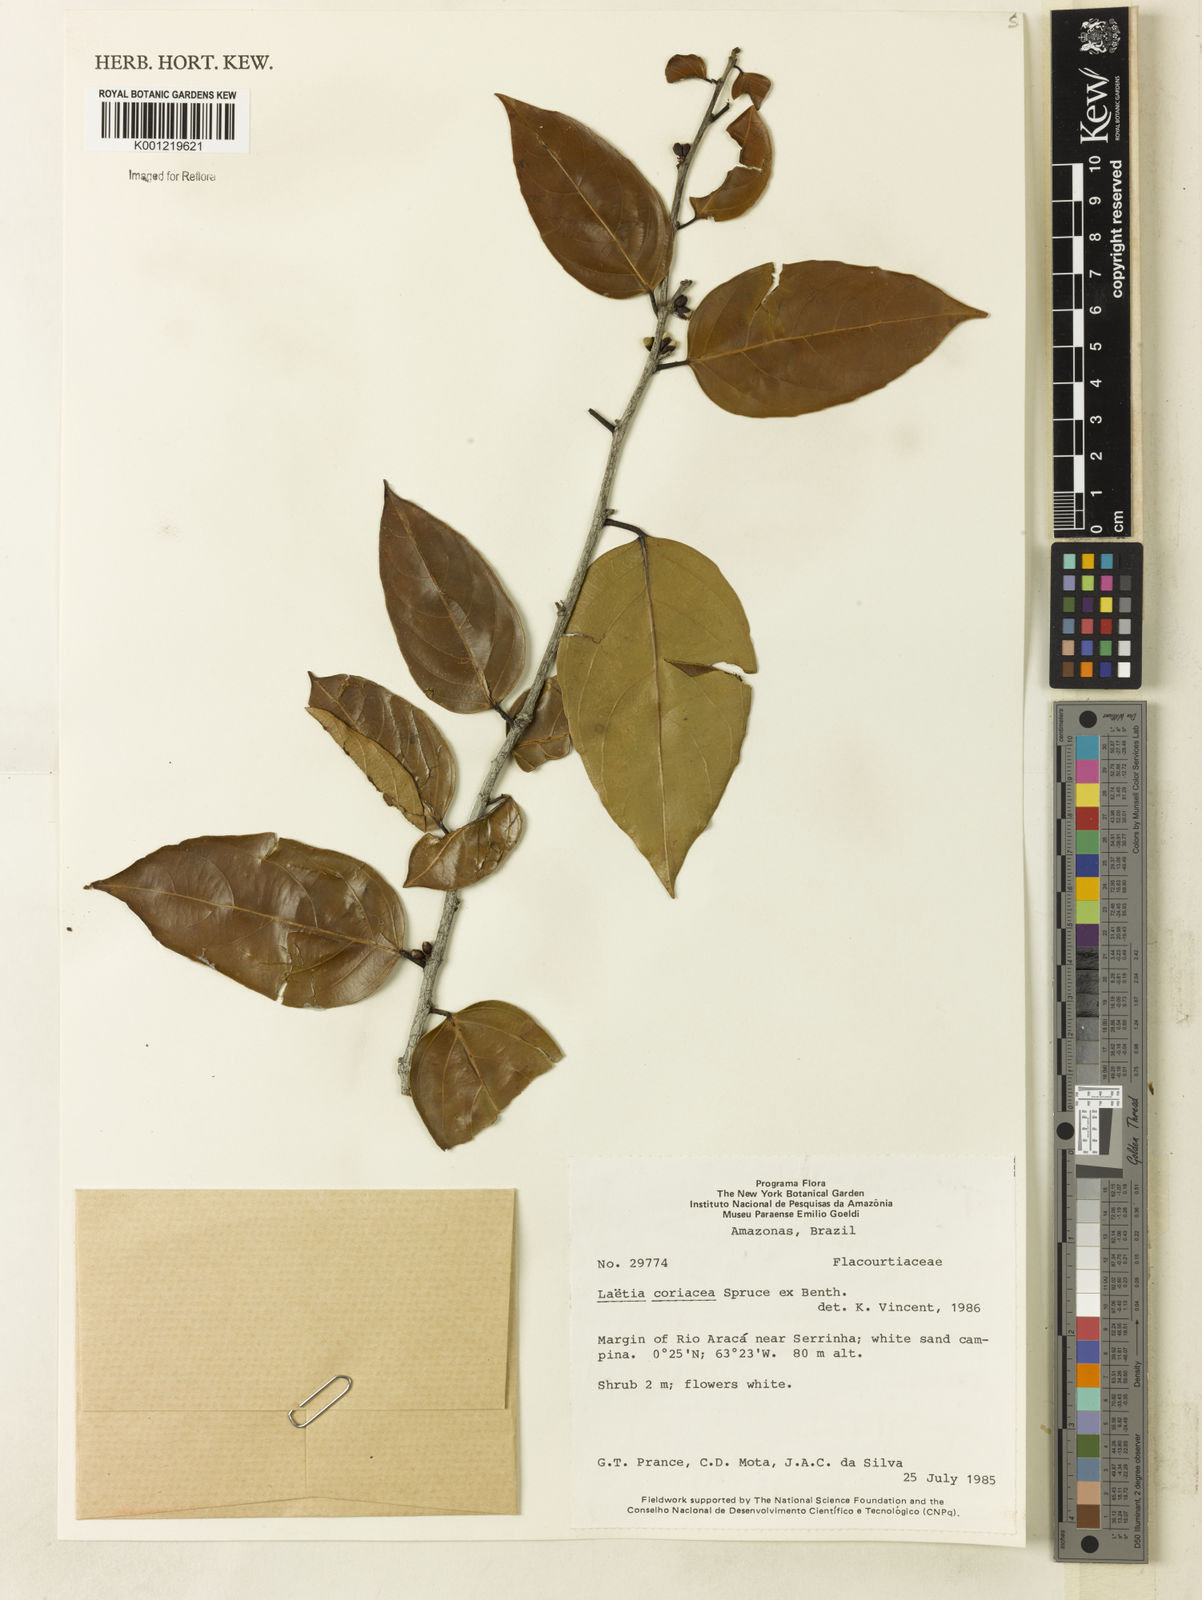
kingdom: Plantae
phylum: Tracheophyta
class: Magnoliopsida
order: Malpighiales
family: Salicaceae
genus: Irenodendron
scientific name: Irenodendron coriaceum
